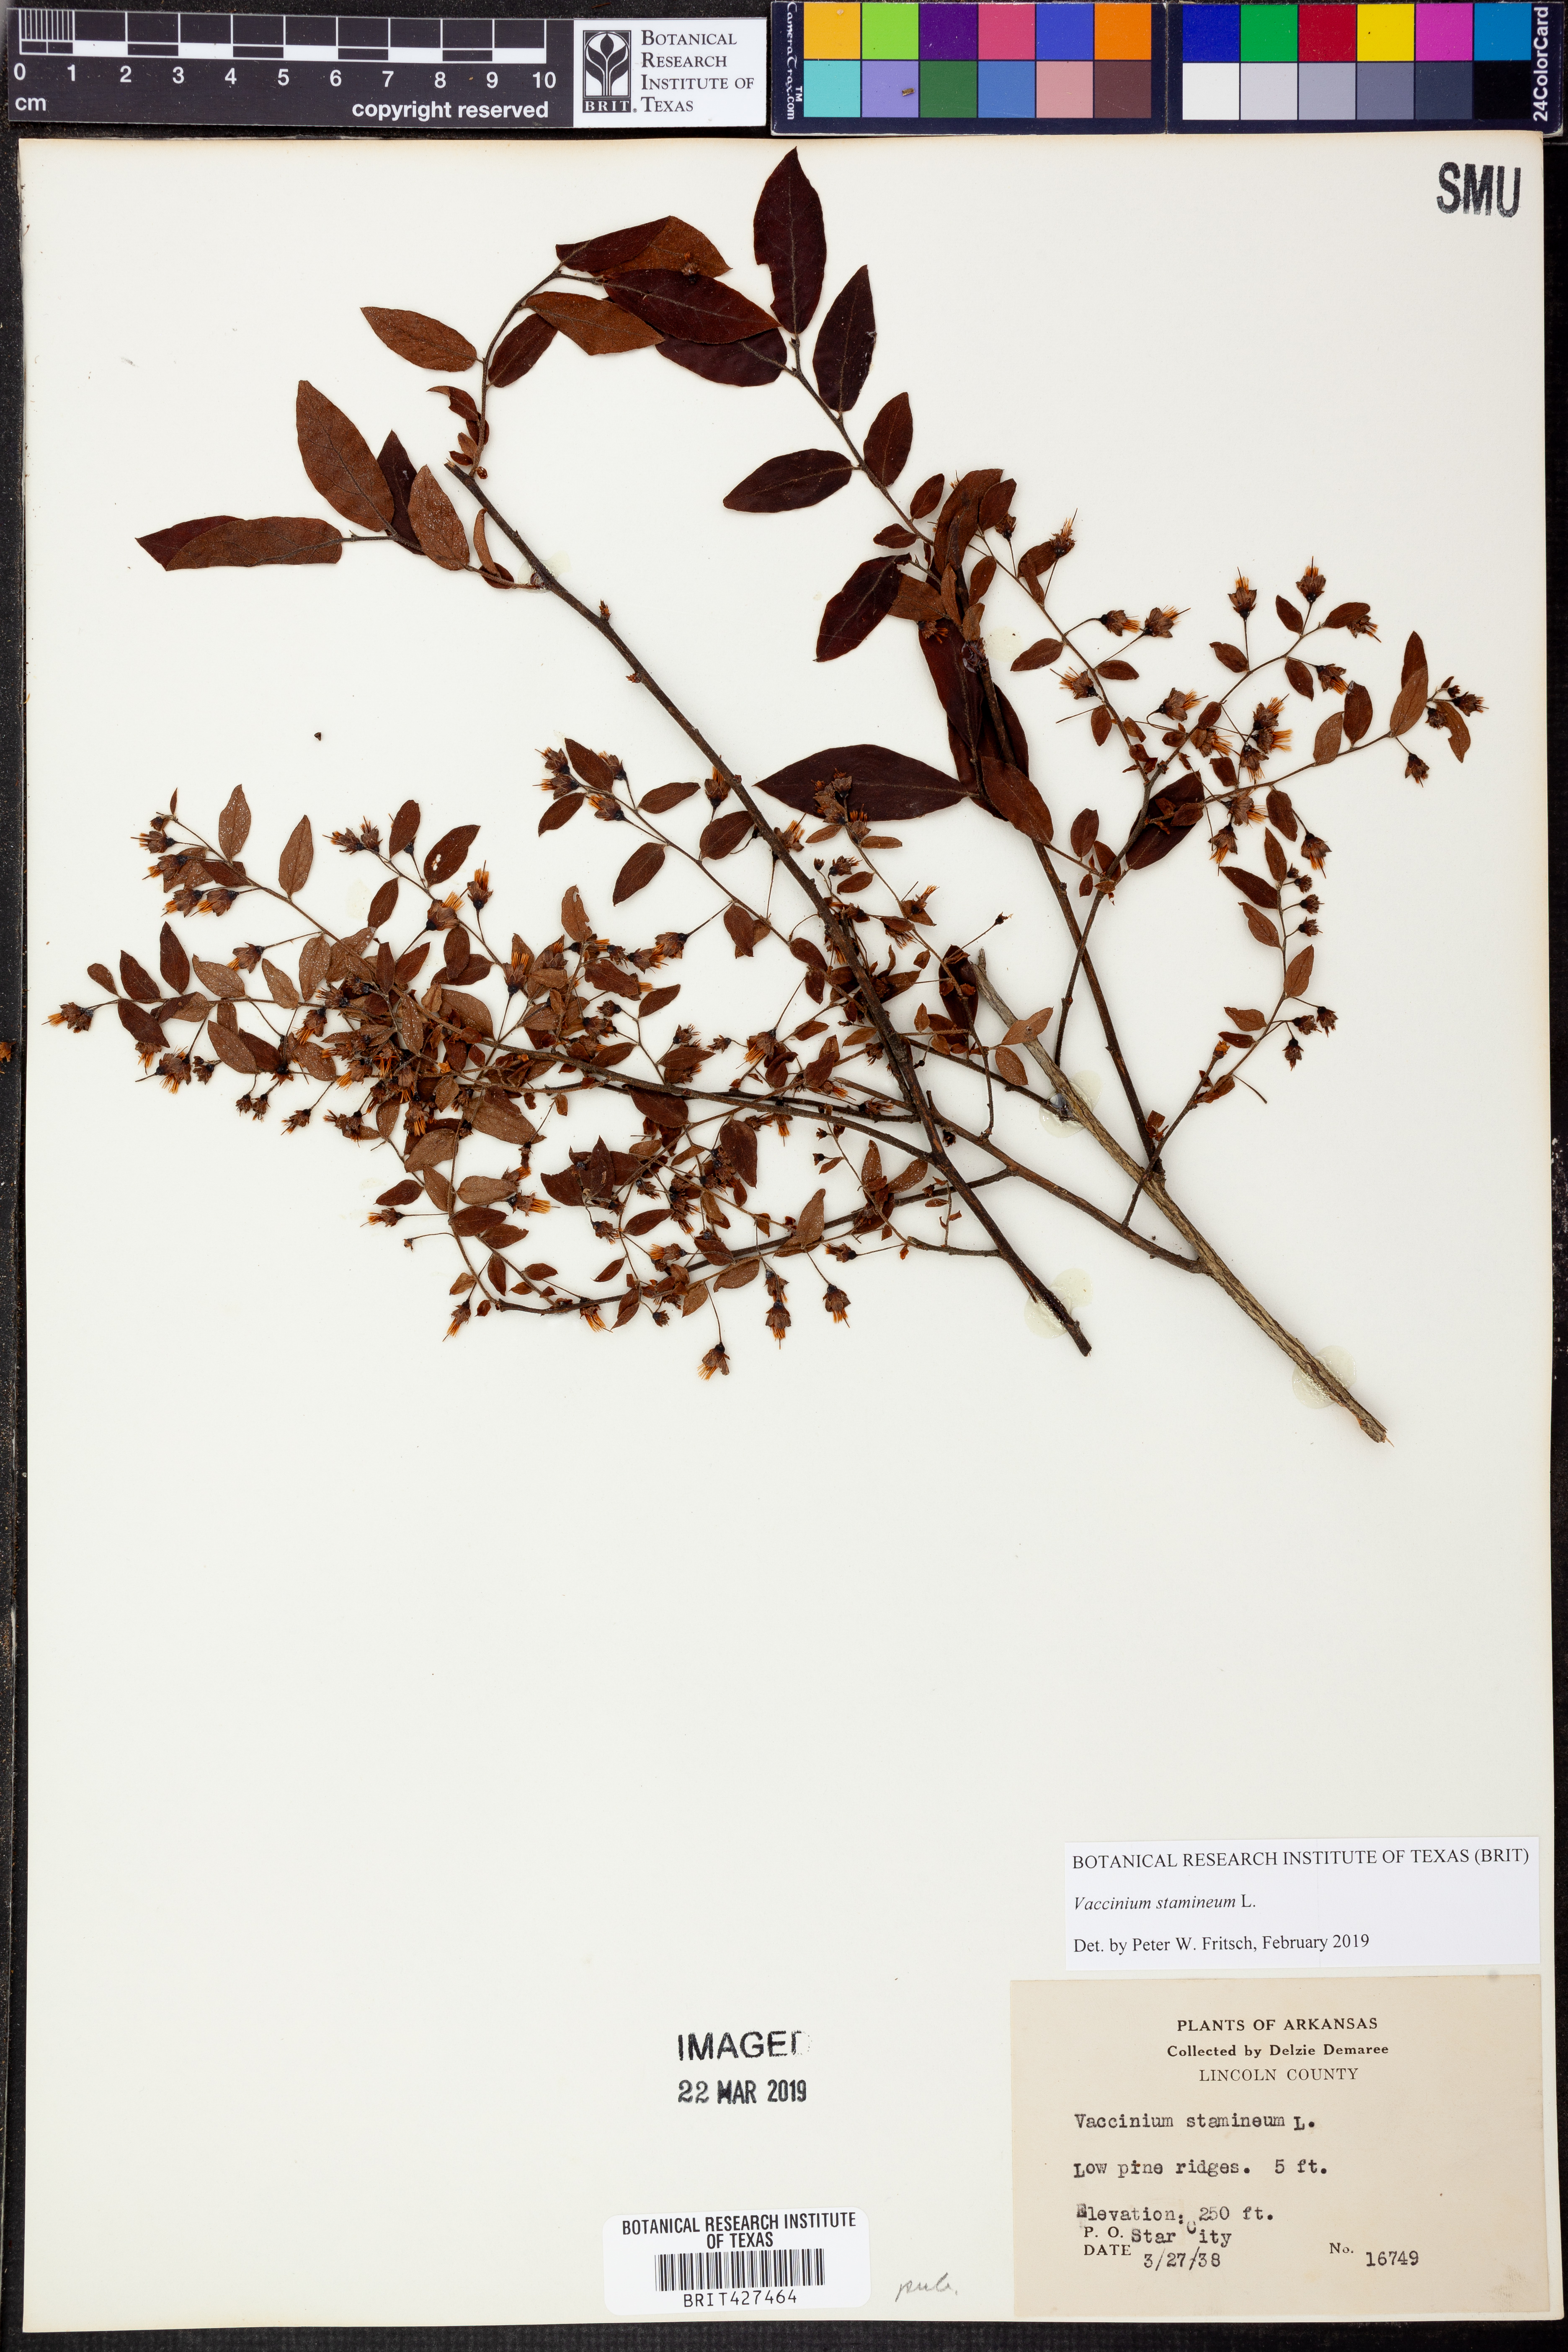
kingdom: Plantae
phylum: Tracheophyta
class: Magnoliopsida
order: Ericales
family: Ericaceae
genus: Vaccinium
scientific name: Vaccinium stamineum
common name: Deerberry
